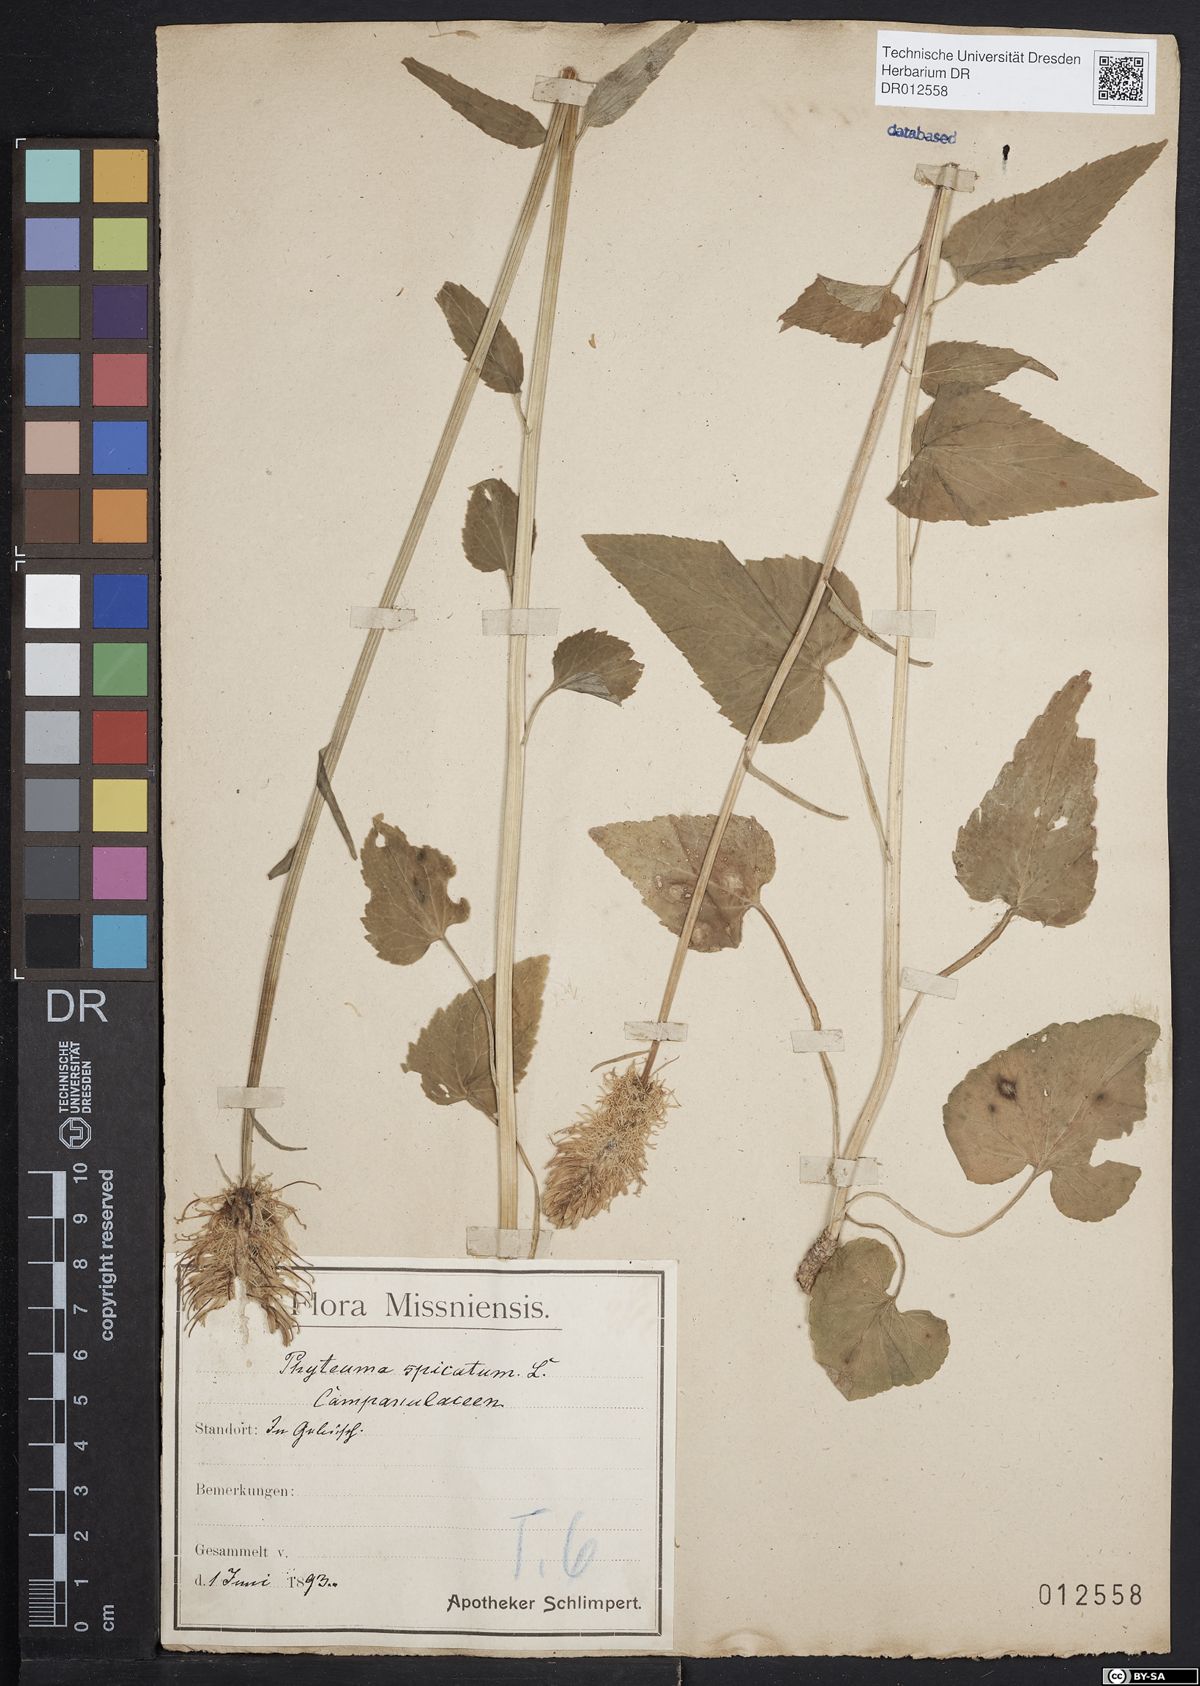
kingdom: Plantae
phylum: Tracheophyta
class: Magnoliopsida
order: Asterales
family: Campanulaceae
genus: Phyteuma
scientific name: Phyteuma spicatum
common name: Spiked rampion
